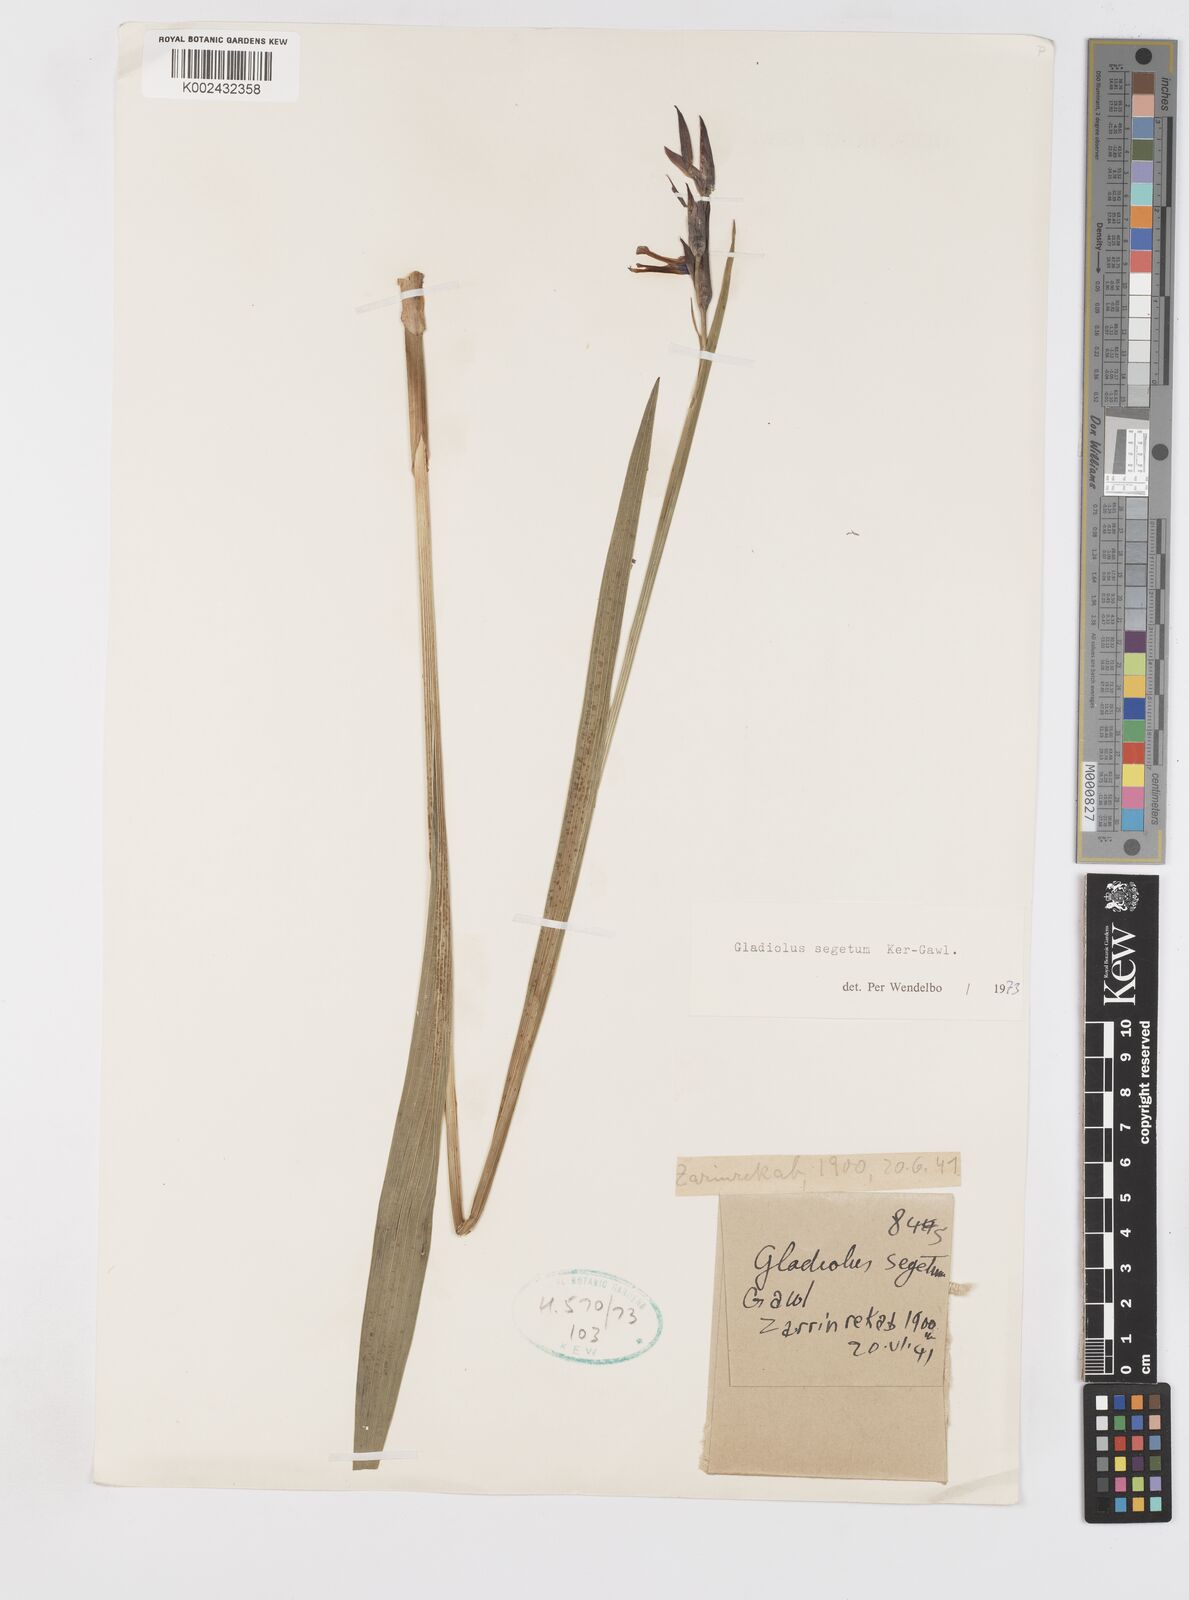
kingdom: Plantae
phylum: Tracheophyta
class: Liliopsida
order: Asparagales
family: Iridaceae
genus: Gladiolus
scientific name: Gladiolus italicus
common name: Field gladiolus
